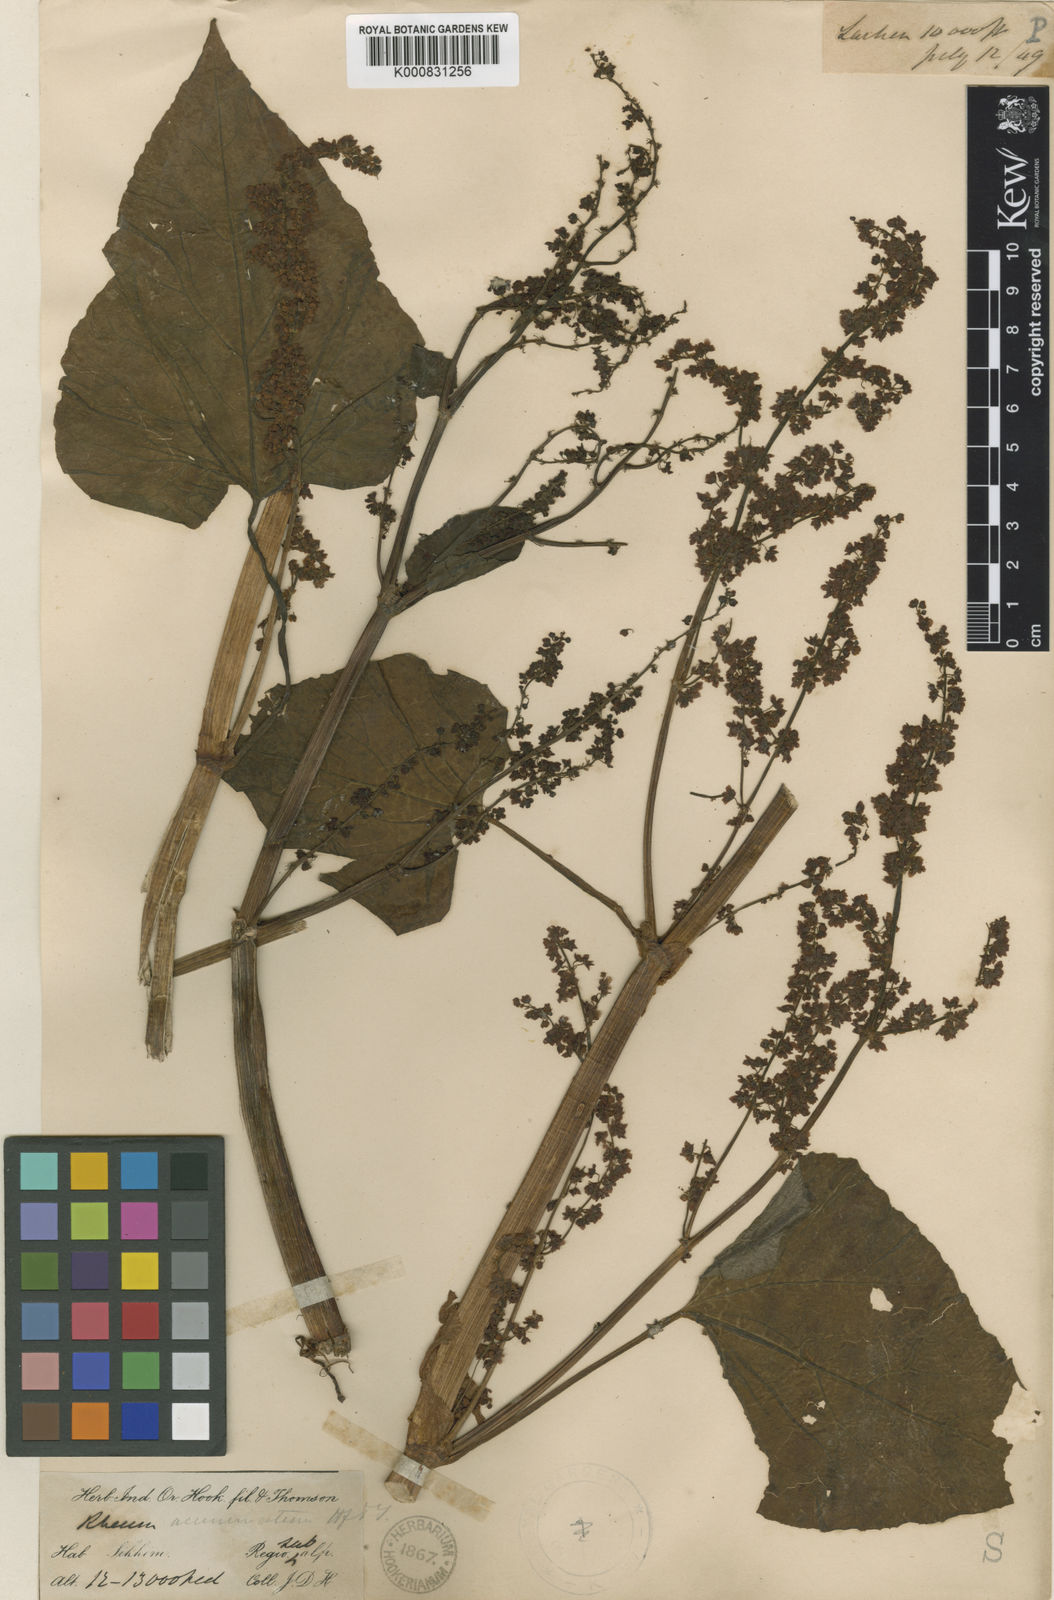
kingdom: Plantae
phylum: Tracheophyta
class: Magnoliopsida
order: Caryophyllales
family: Polygonaceae
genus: Rheum
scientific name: Rheum acuminatum
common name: Himalayan rhubarb
